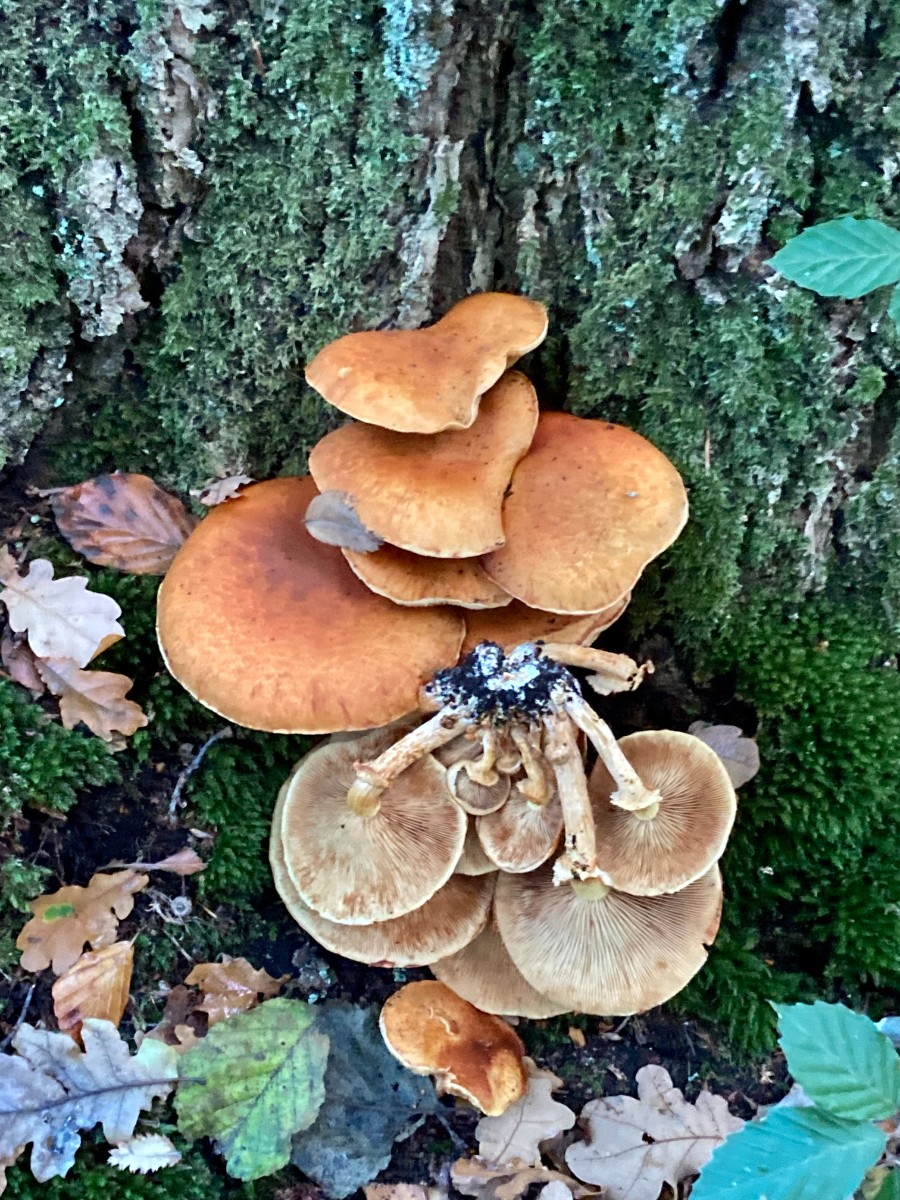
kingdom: Fungi
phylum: Basidiomycota
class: Agaricomycetes
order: Agaricales
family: Hymenogastraceae
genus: Gymnopilus
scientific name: Gymnopilus spectabilis
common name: fibret flammehat
